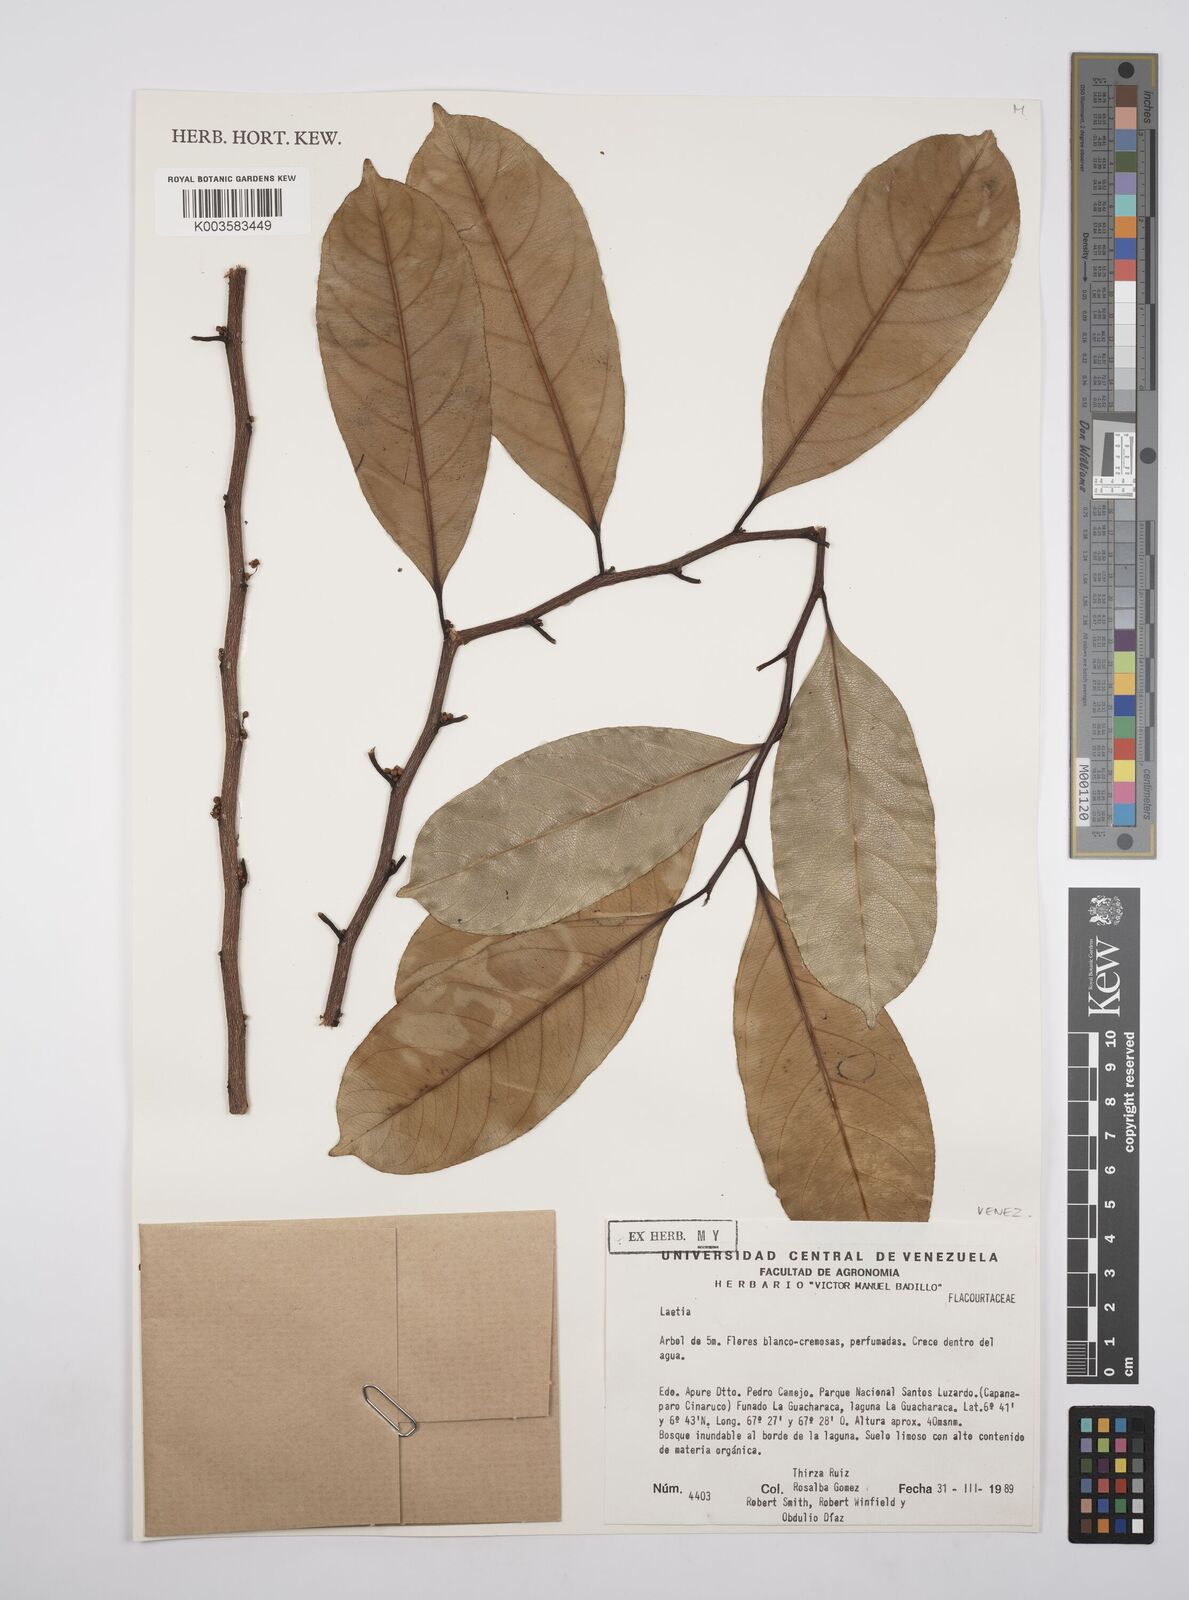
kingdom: Plantae
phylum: Tracheophyta
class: Magnoliopsida
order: Malpighiales
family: Flacourtiaceae
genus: Laetia
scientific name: Laetia
